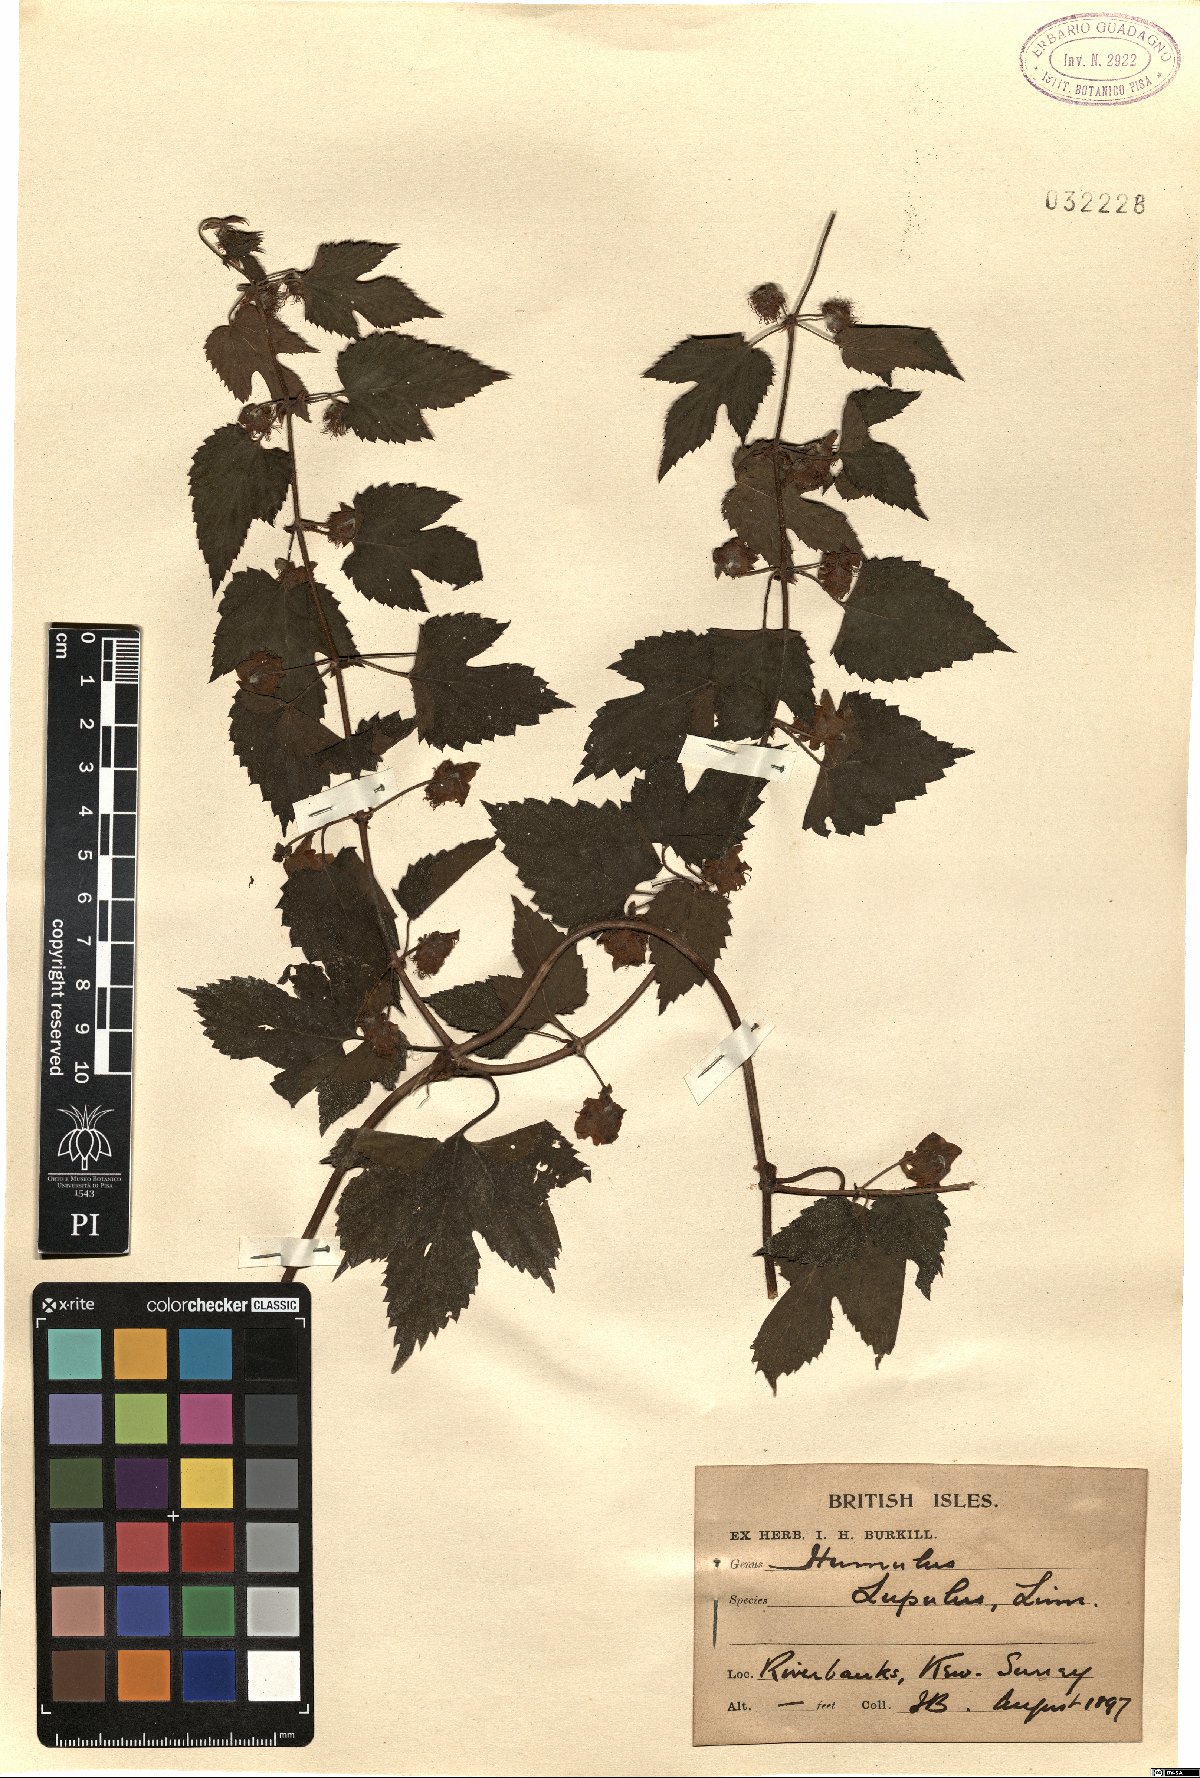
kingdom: Plantae
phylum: Tracheophyta
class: Magnoliopsida
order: Rosales
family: Cannabaceae
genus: Humulus
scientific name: Humulus lupulus
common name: Hop
